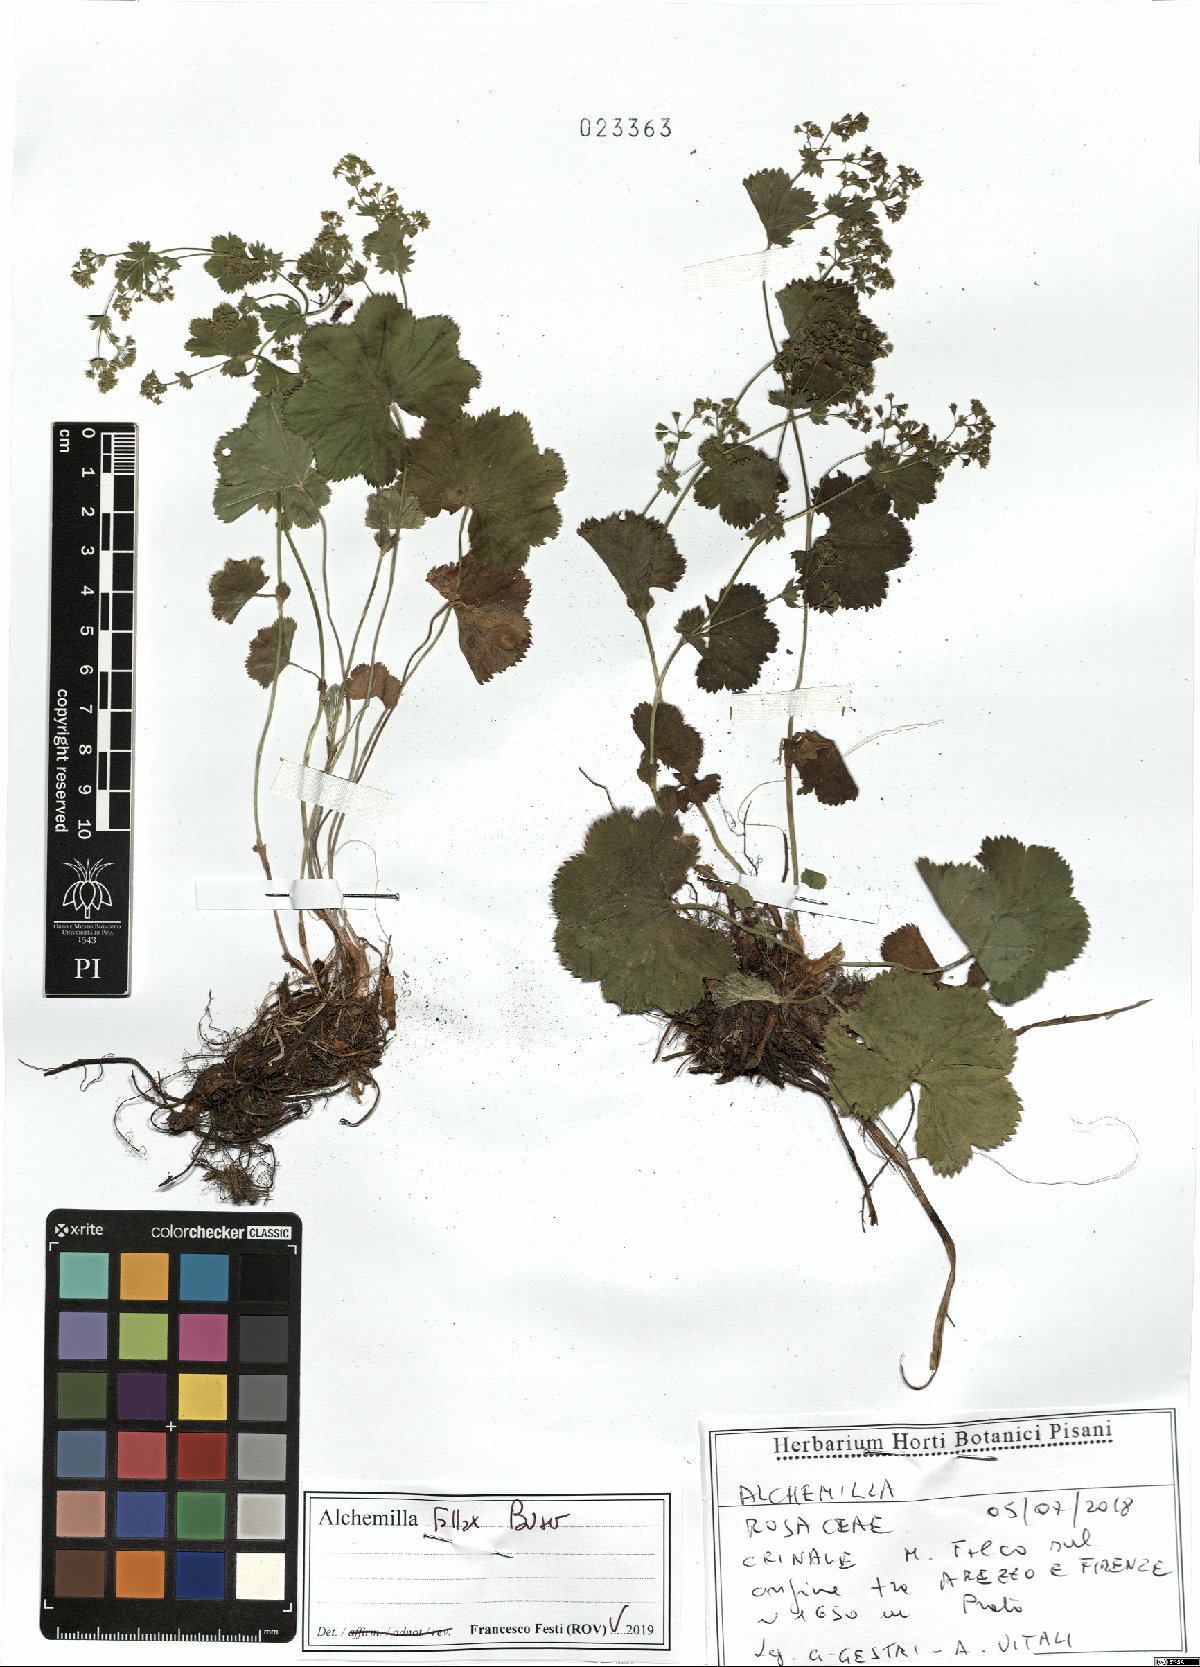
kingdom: Plantae
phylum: Tracheophyta
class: Magnoliopsida
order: Rosales
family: Rosaceae
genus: Alchemilla
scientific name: Alchemilla fallax
